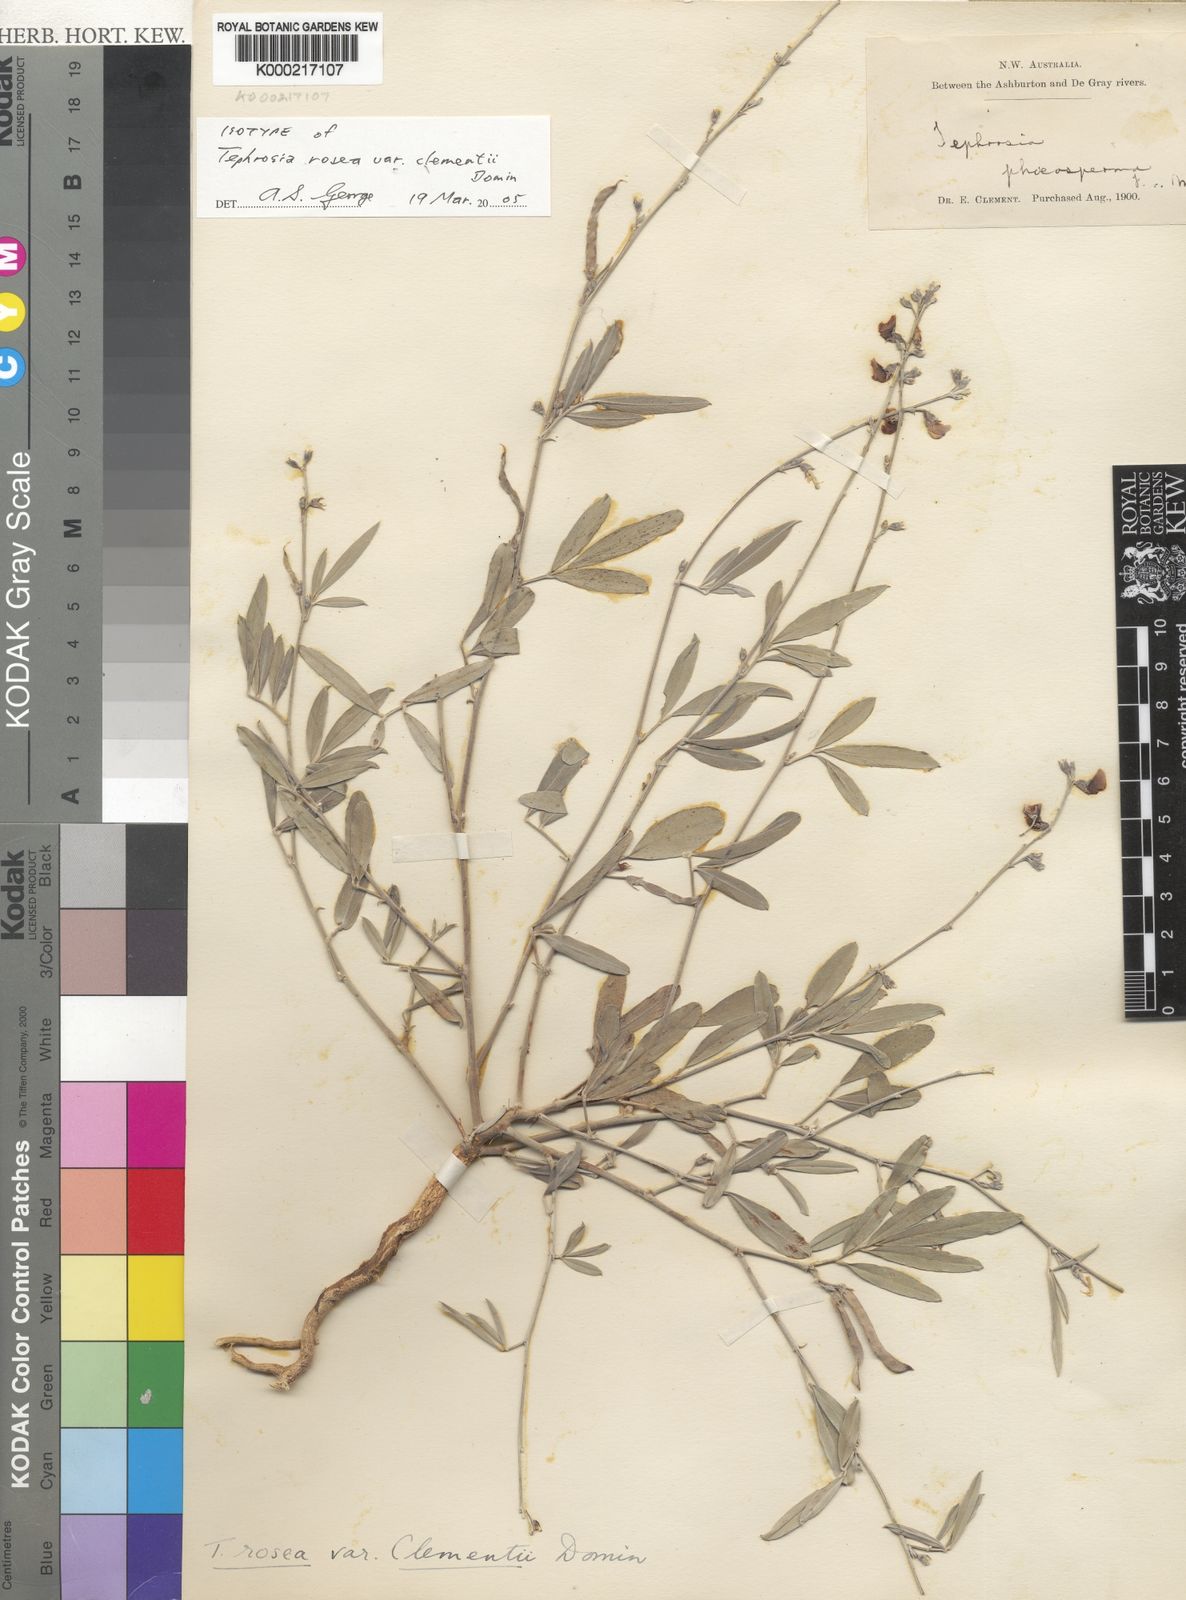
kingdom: Plantae
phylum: Tracheophyta
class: Magnoliopsida
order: Fabales
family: Fabaceae
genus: Tephrosia
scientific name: Tephrosia rosea
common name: Flinders river-poison
